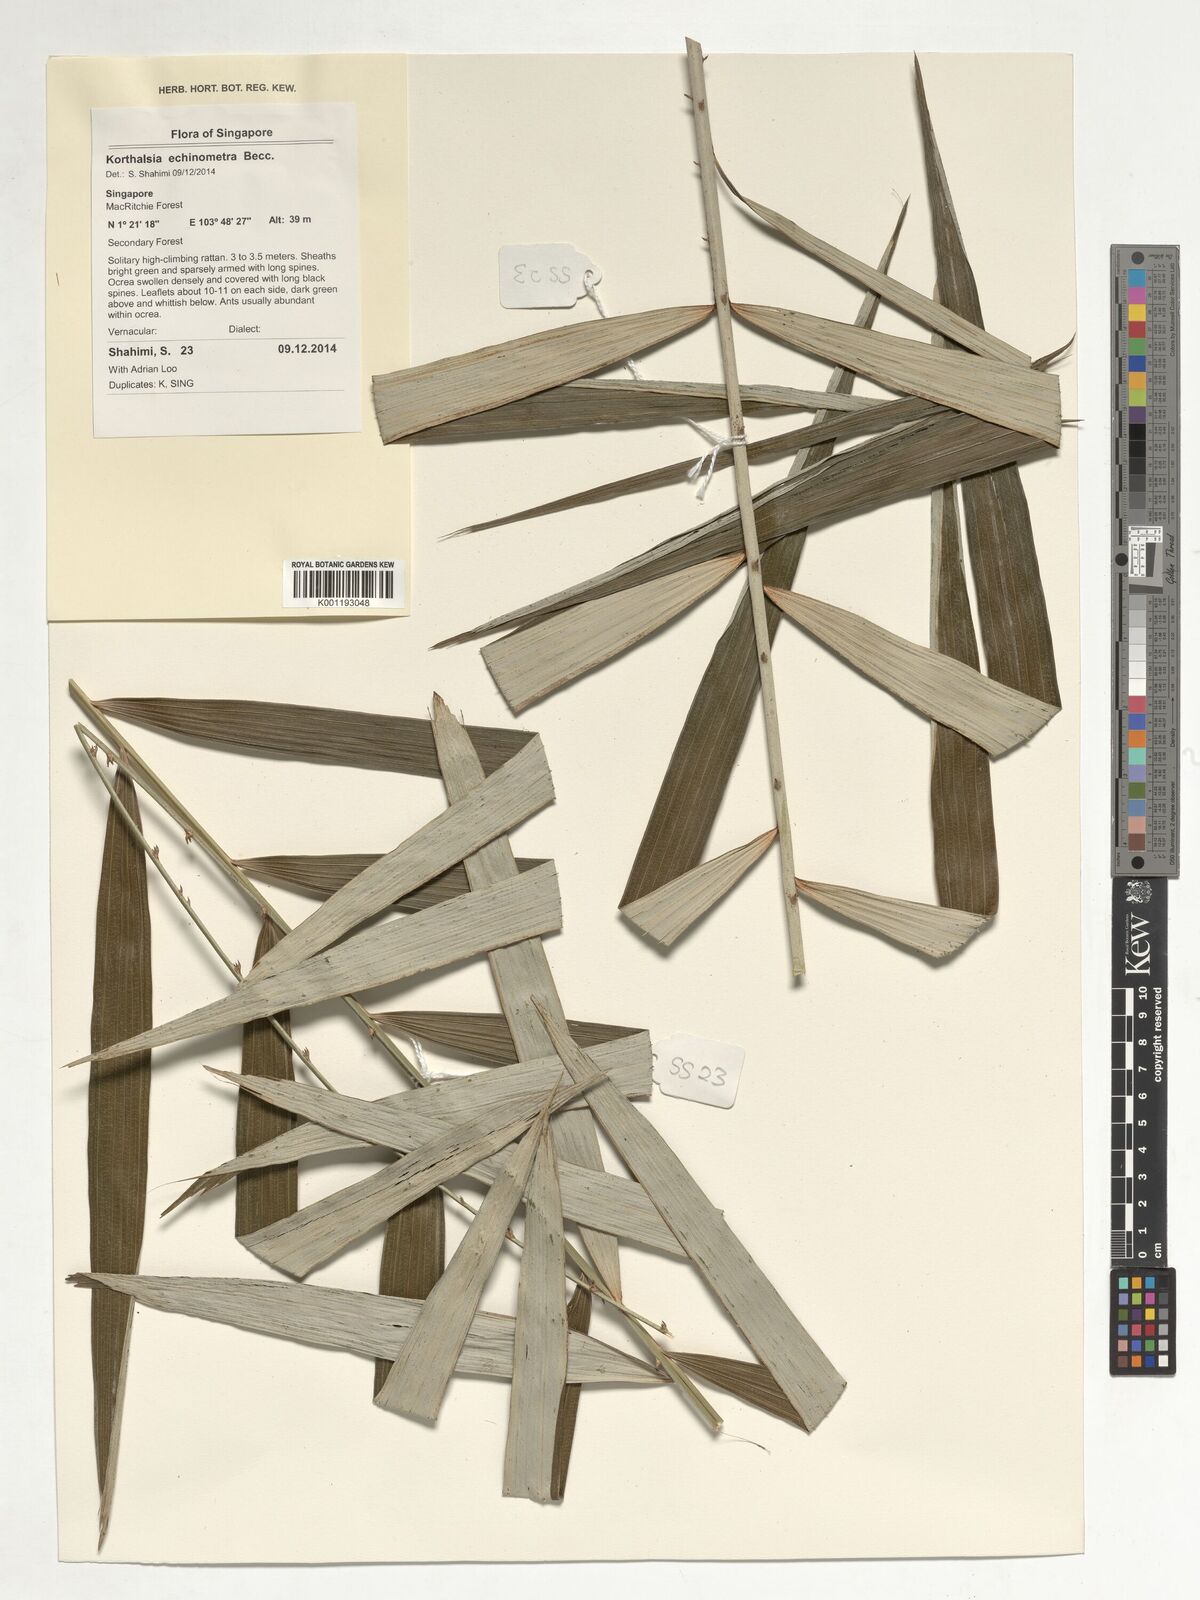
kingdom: Plantae
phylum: Tracheophyta
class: Liliopsida
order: Arecales
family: Arecaceae
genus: Korthalsia
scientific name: Korthalsia echinometra
